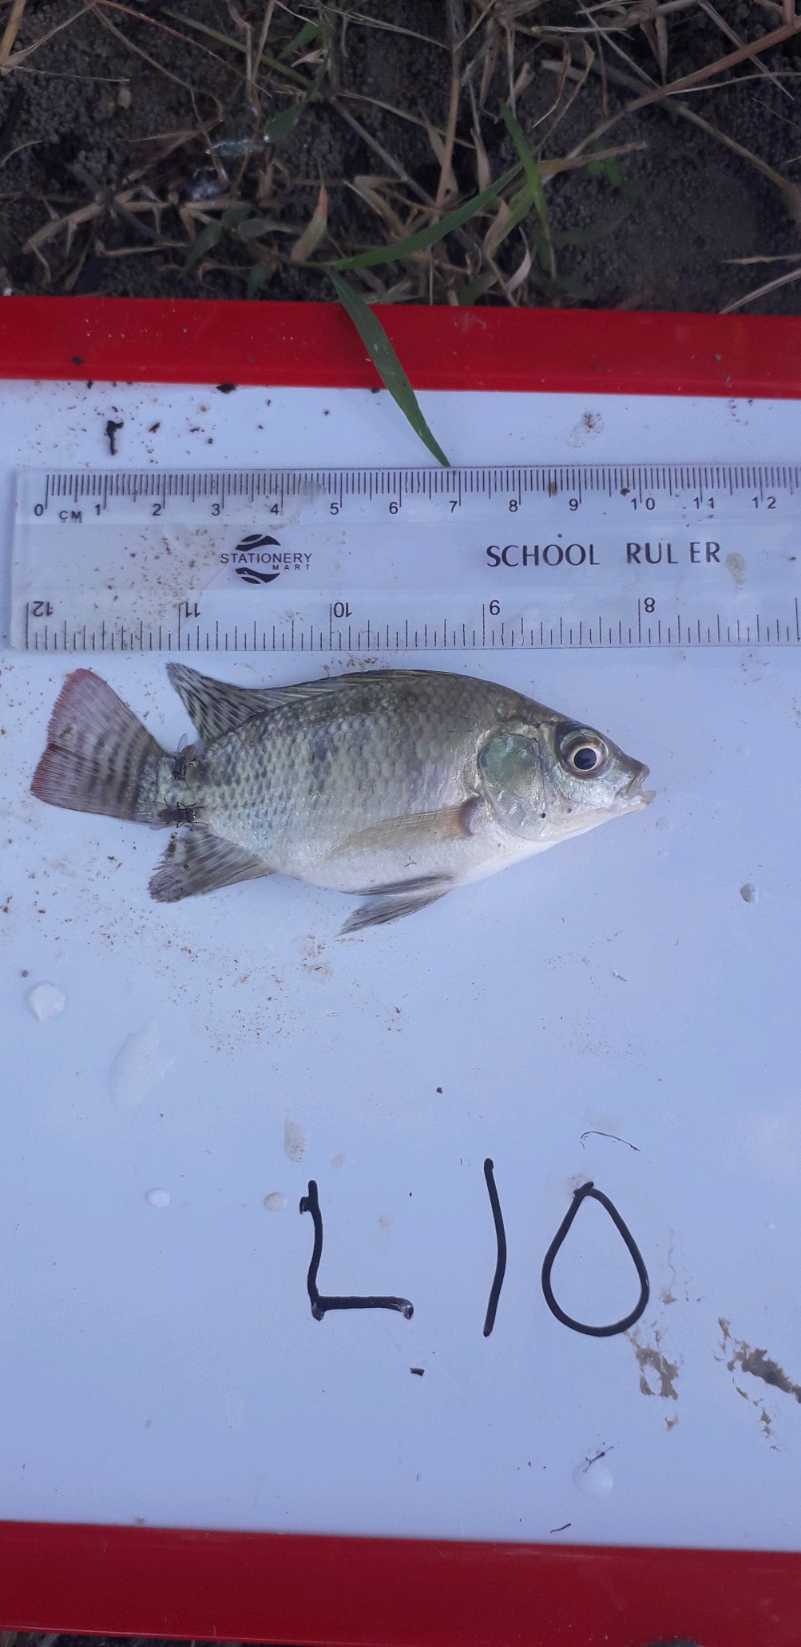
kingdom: Animalia
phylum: Chordata
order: Perciformes
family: Cichlidae
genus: Oreochromis
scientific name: Oreochromis niloticus
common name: Nile tilapia
